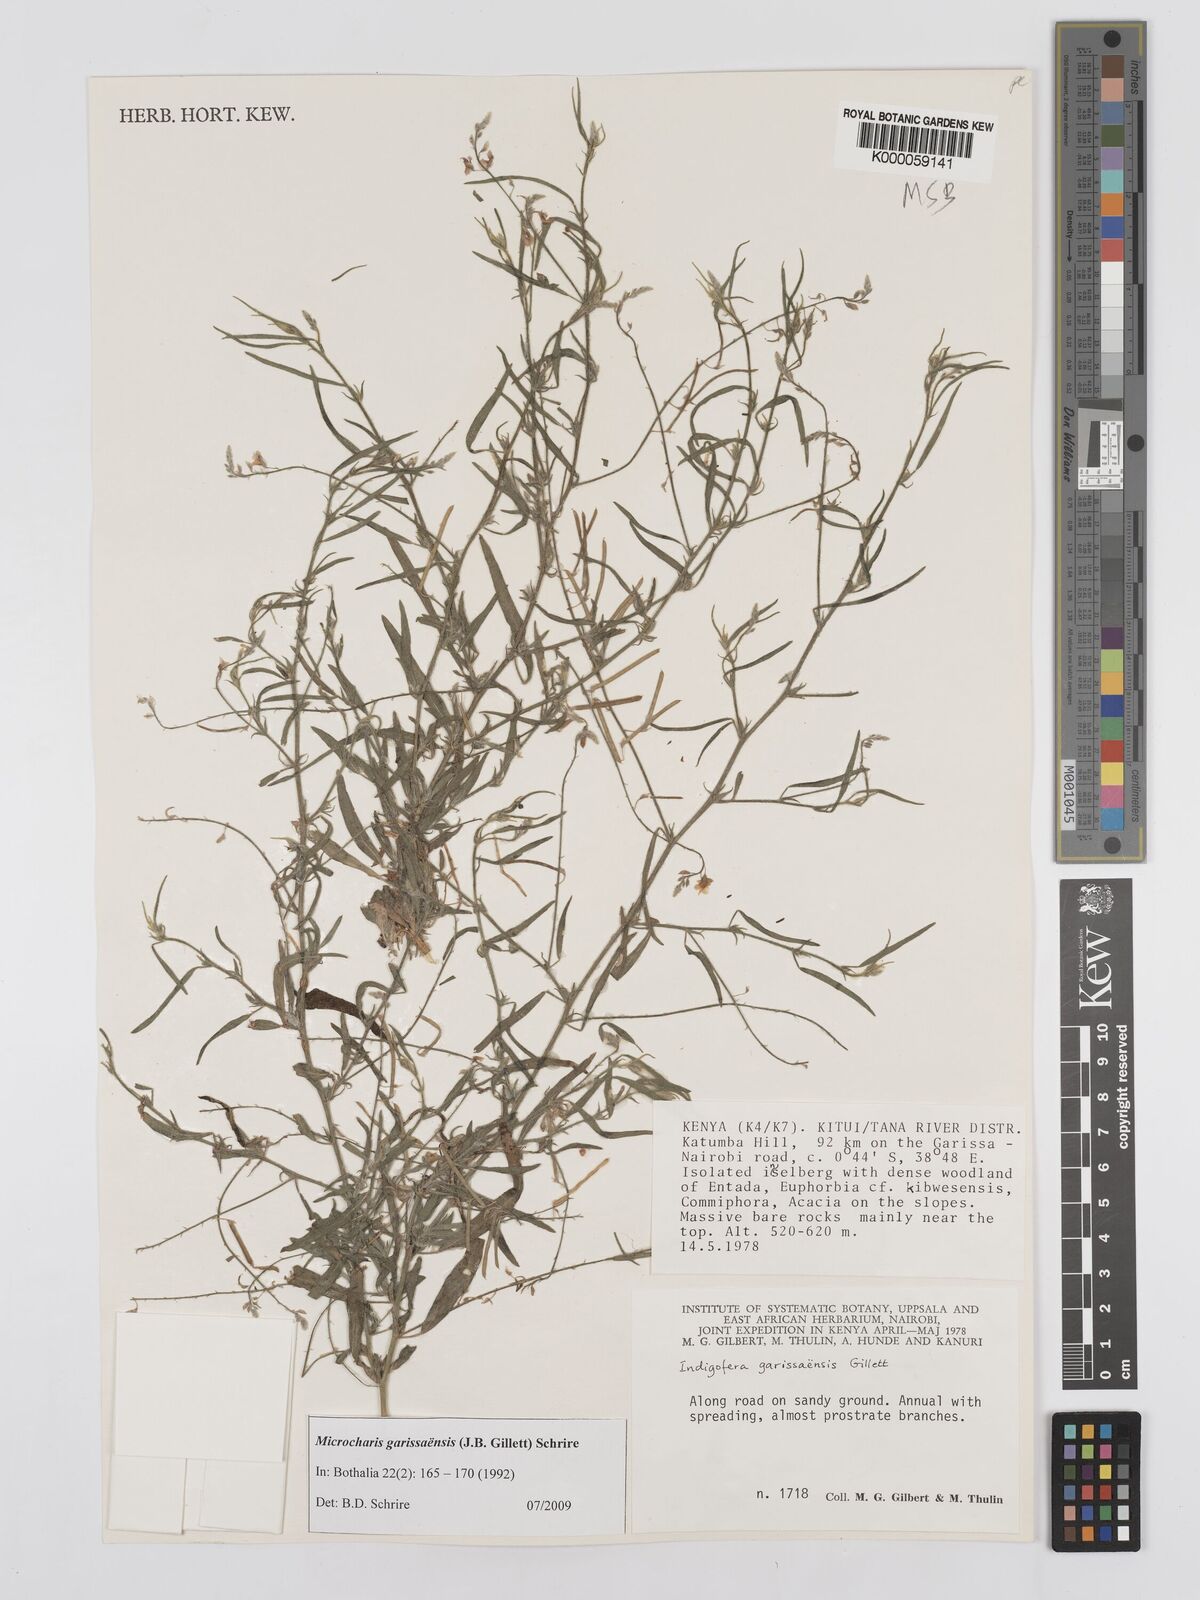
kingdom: Plantae
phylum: Tracheophyta
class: Magnoliopsida
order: Fabales
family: Fabaceae
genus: Microcharis
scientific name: Microcharis garissaensis
